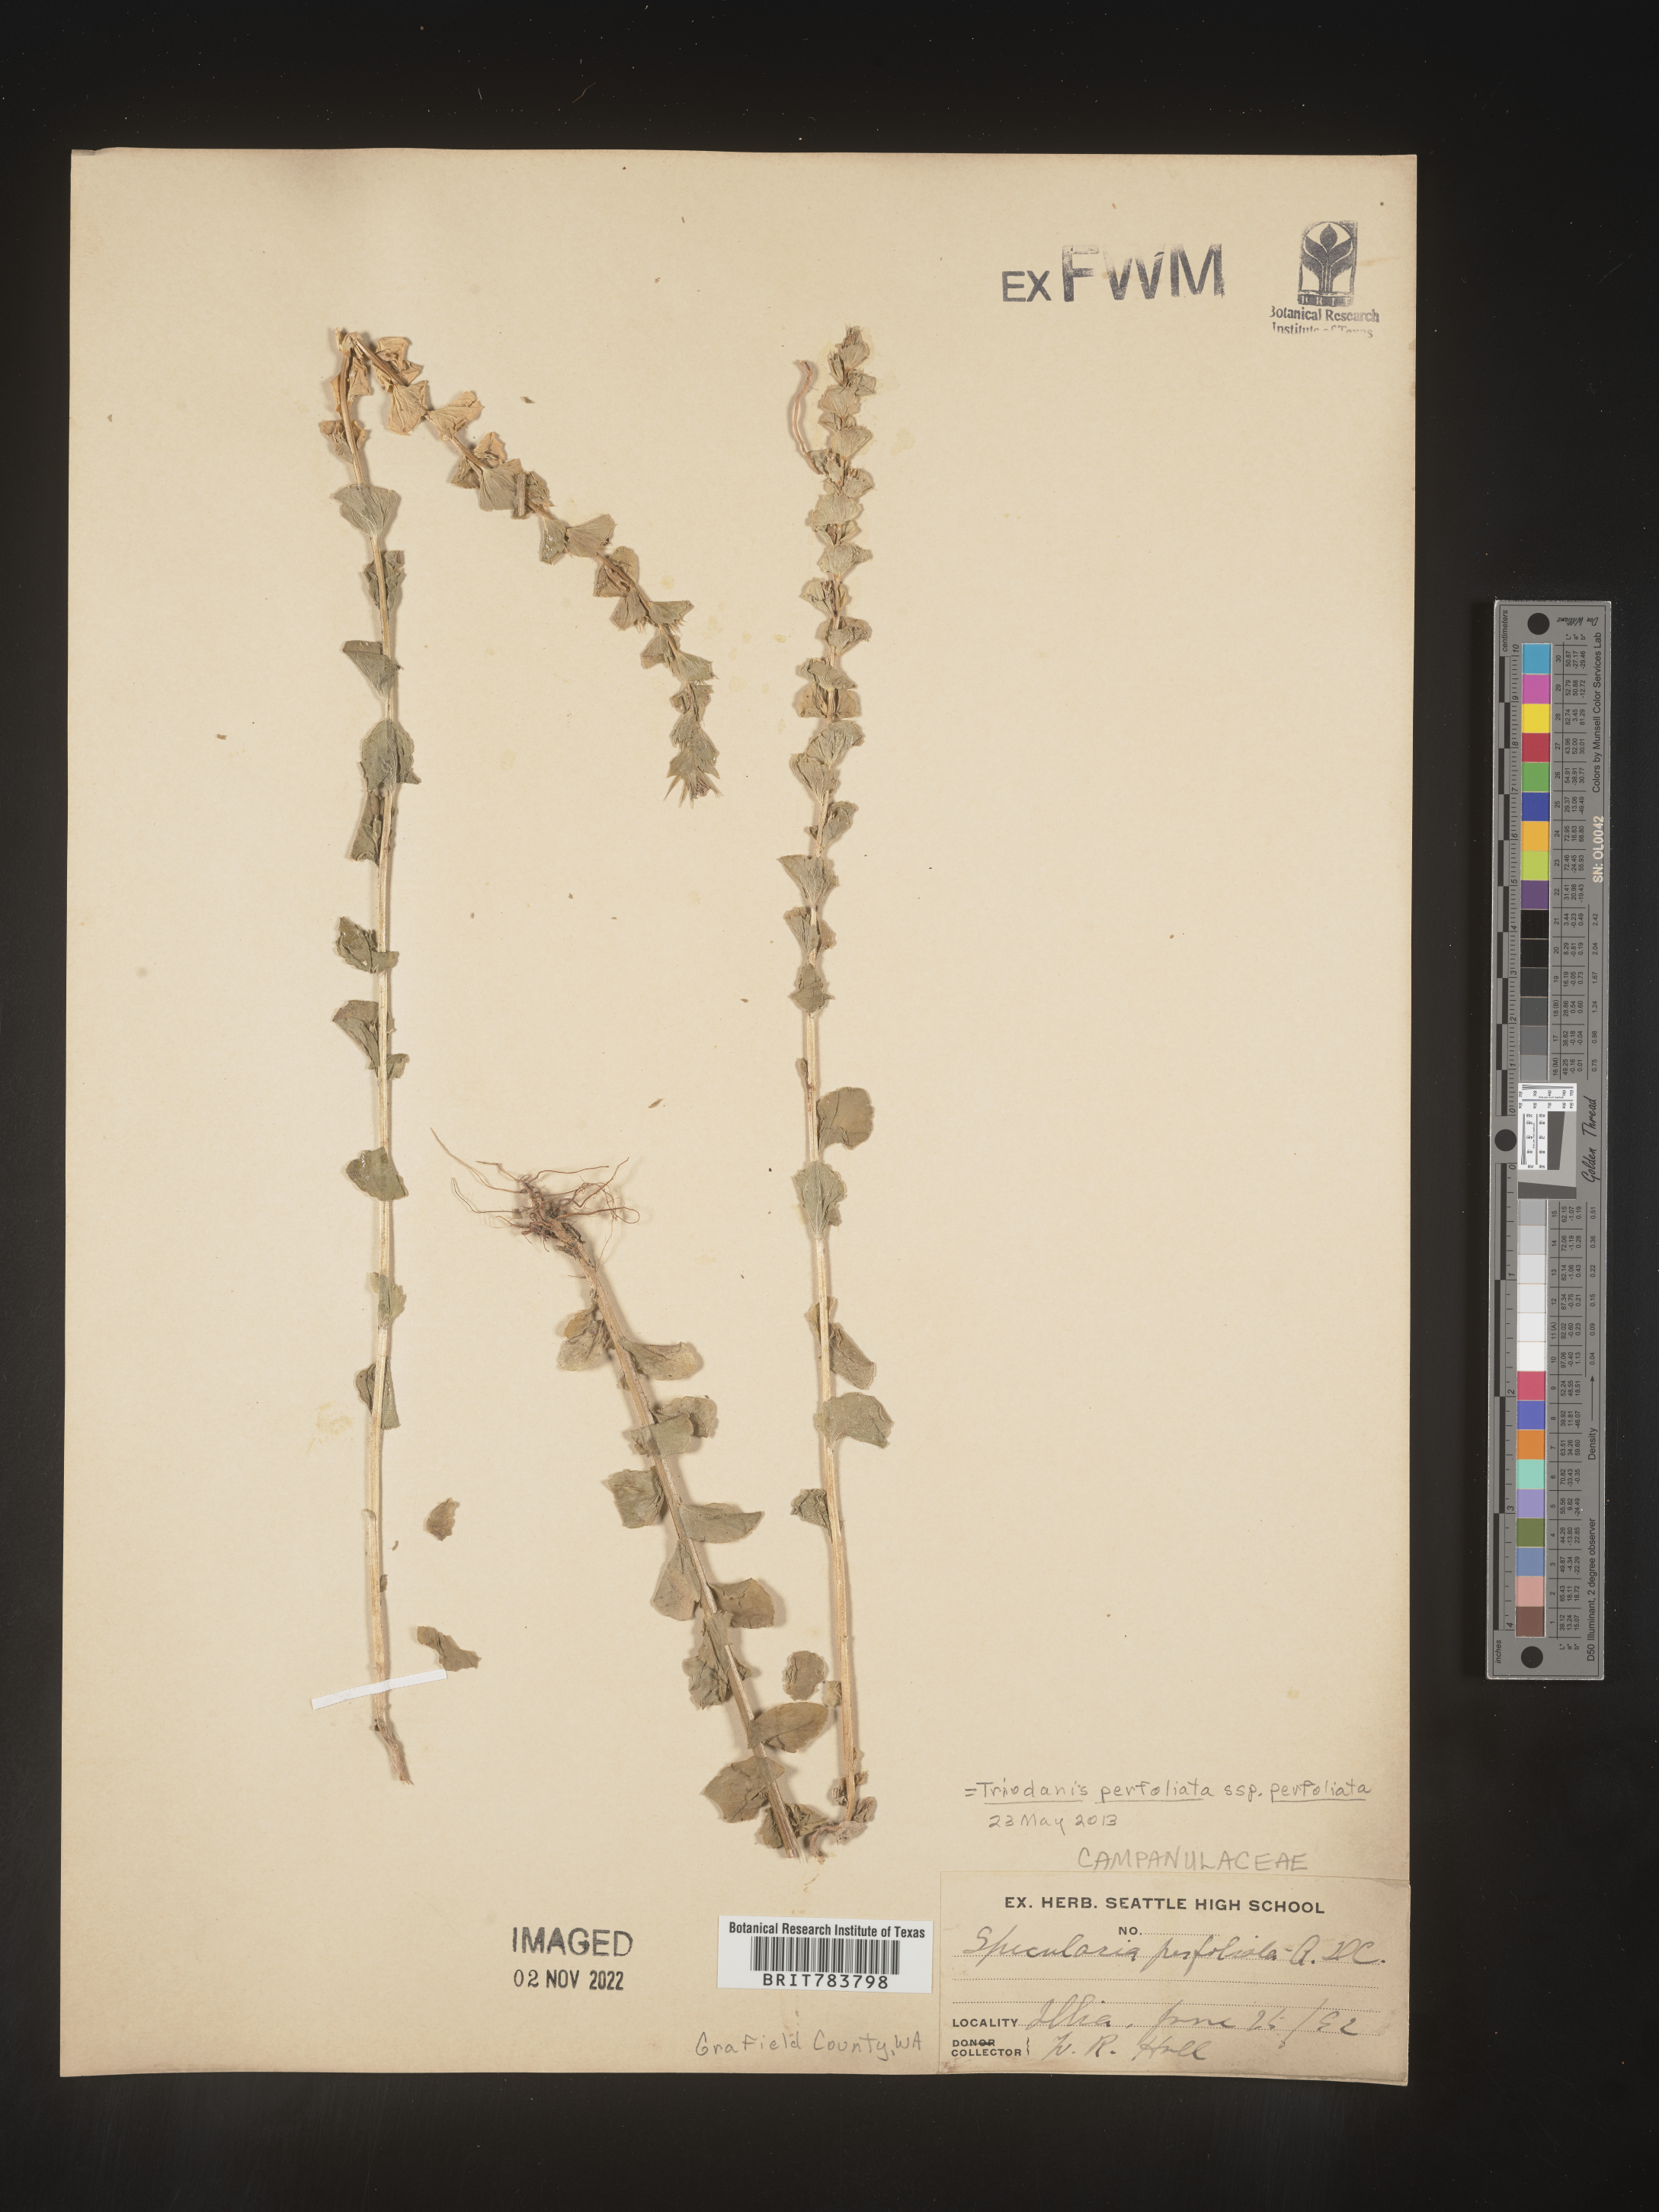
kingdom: Plantae
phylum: Tracheophyta
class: Magnoliopsida
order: Asterales
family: Campanulaceae
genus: Triodanis
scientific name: Triodanis perfoliata
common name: Clasping venus' looking-glass
